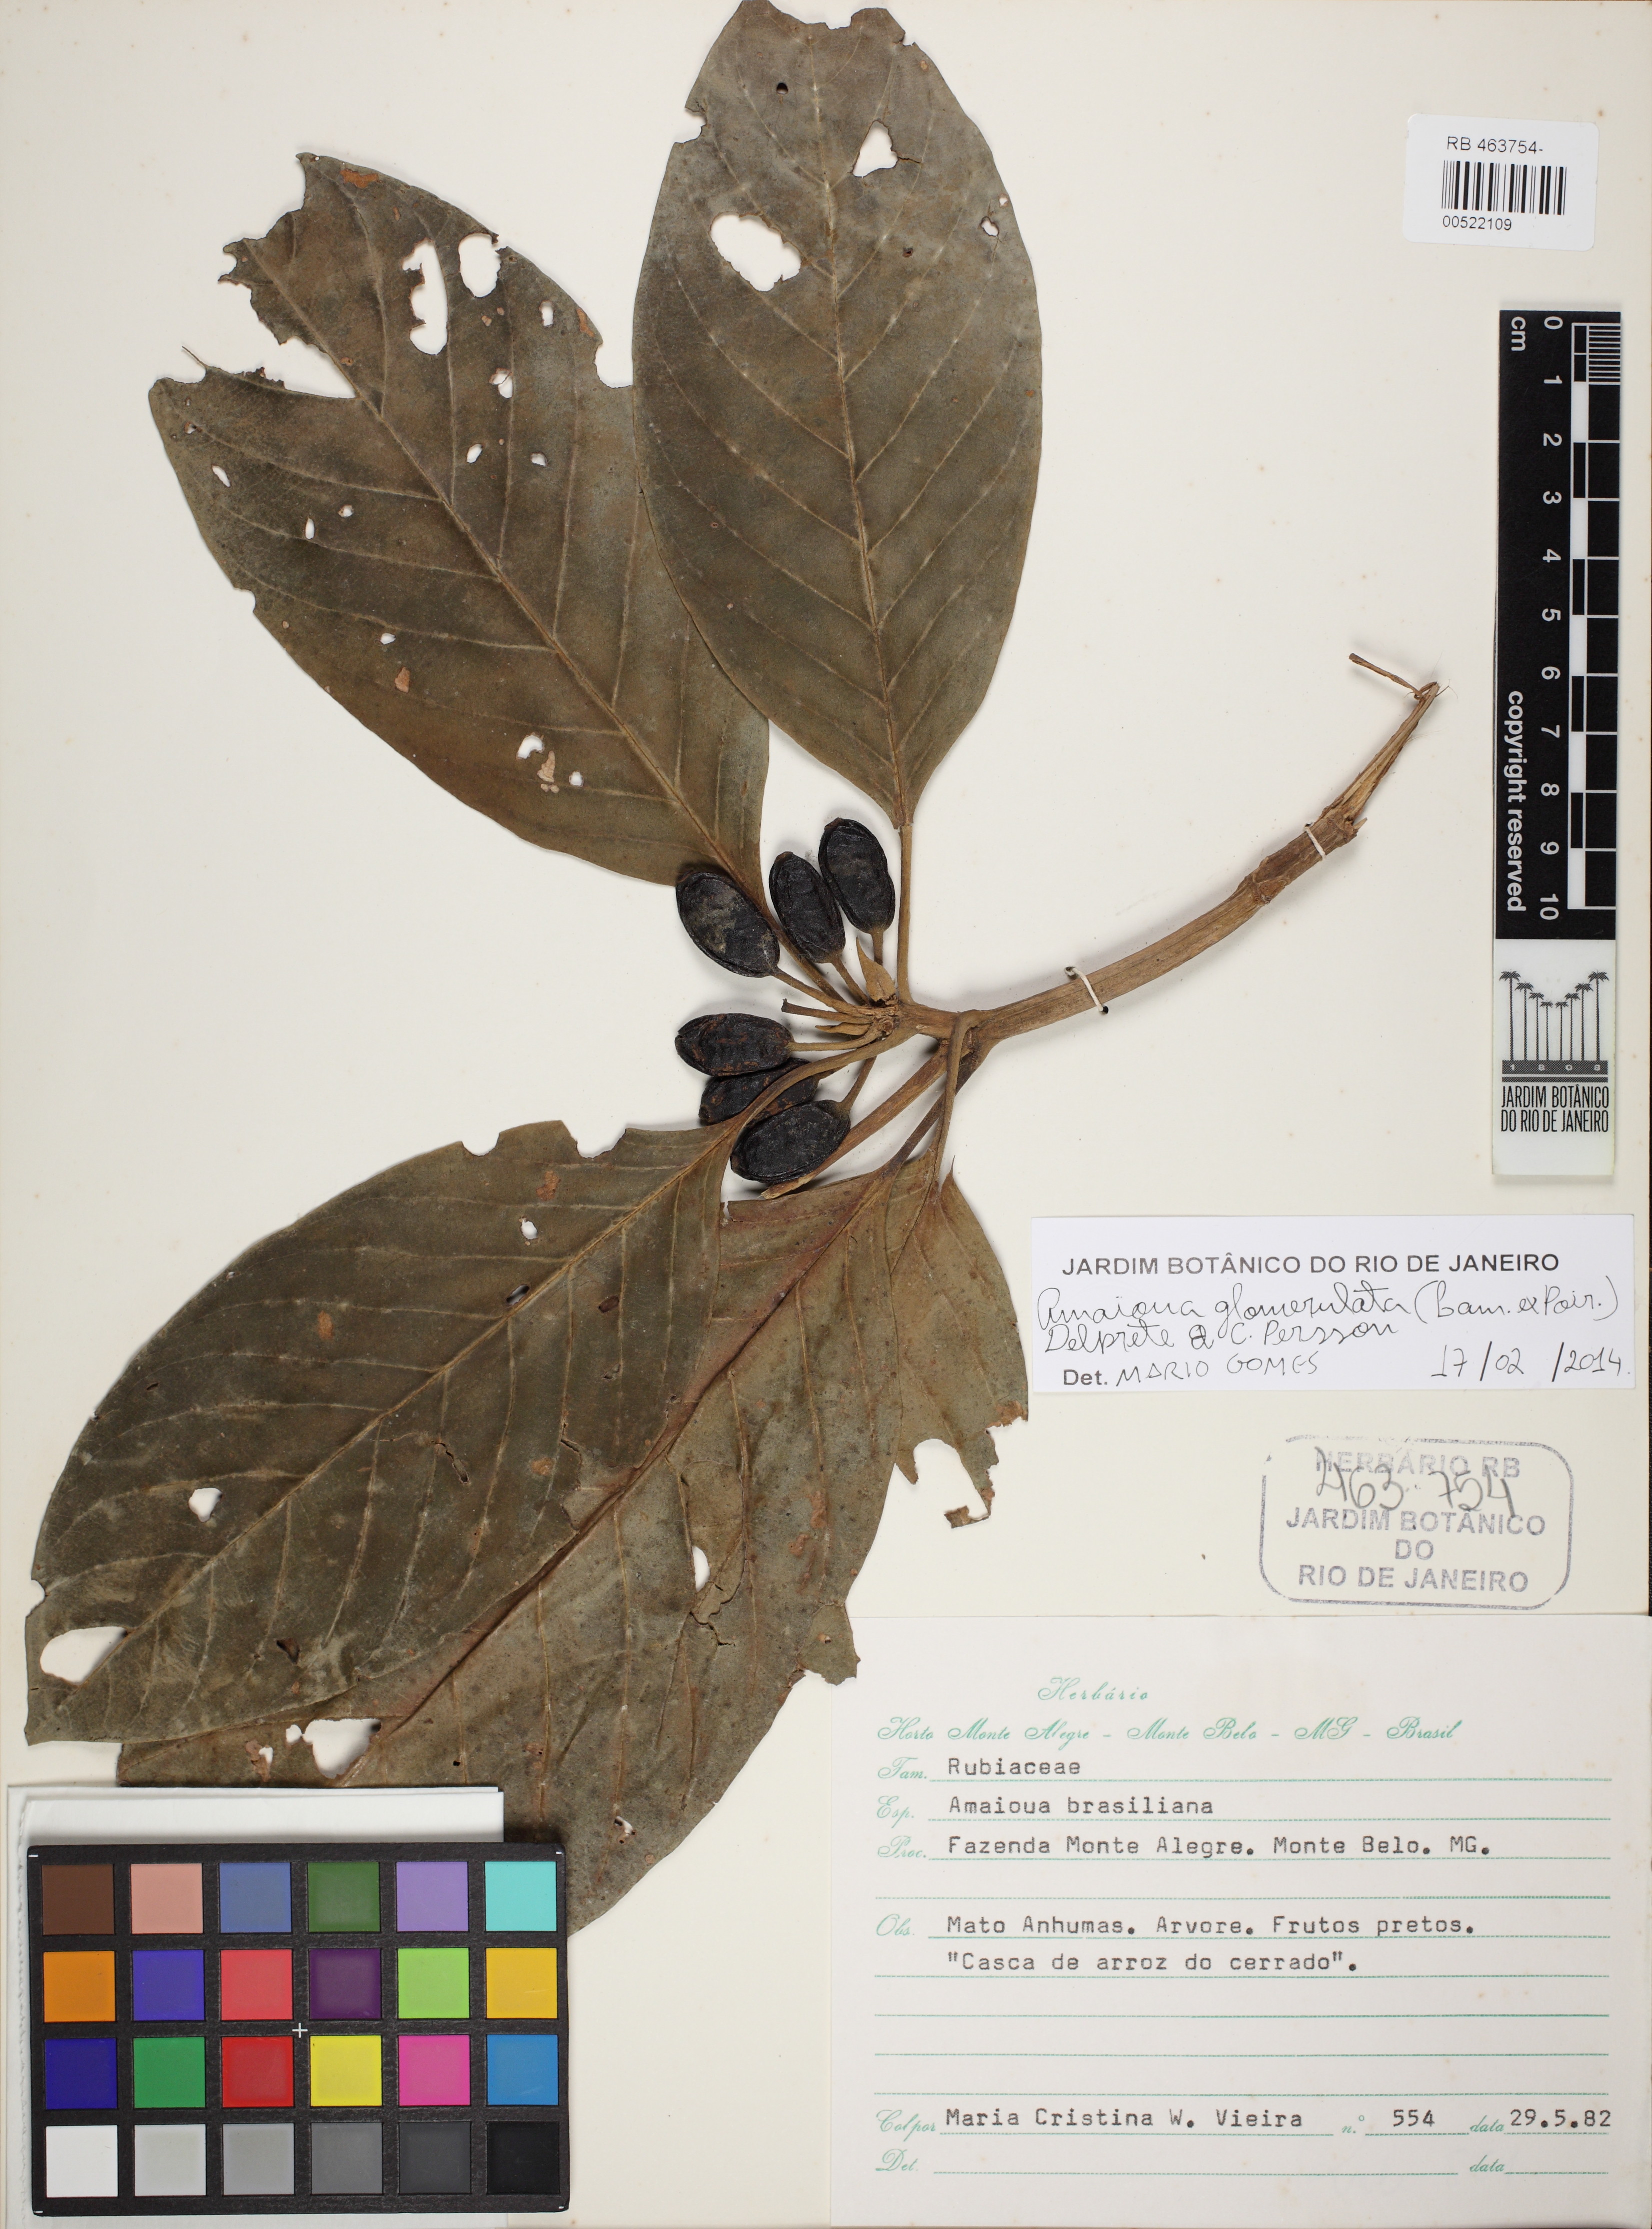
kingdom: Plantae
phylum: Tracheophyta
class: Magnoliopsida
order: Gentianales
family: Rubiaceae
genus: Amaioua
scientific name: Amaioua intermedia
